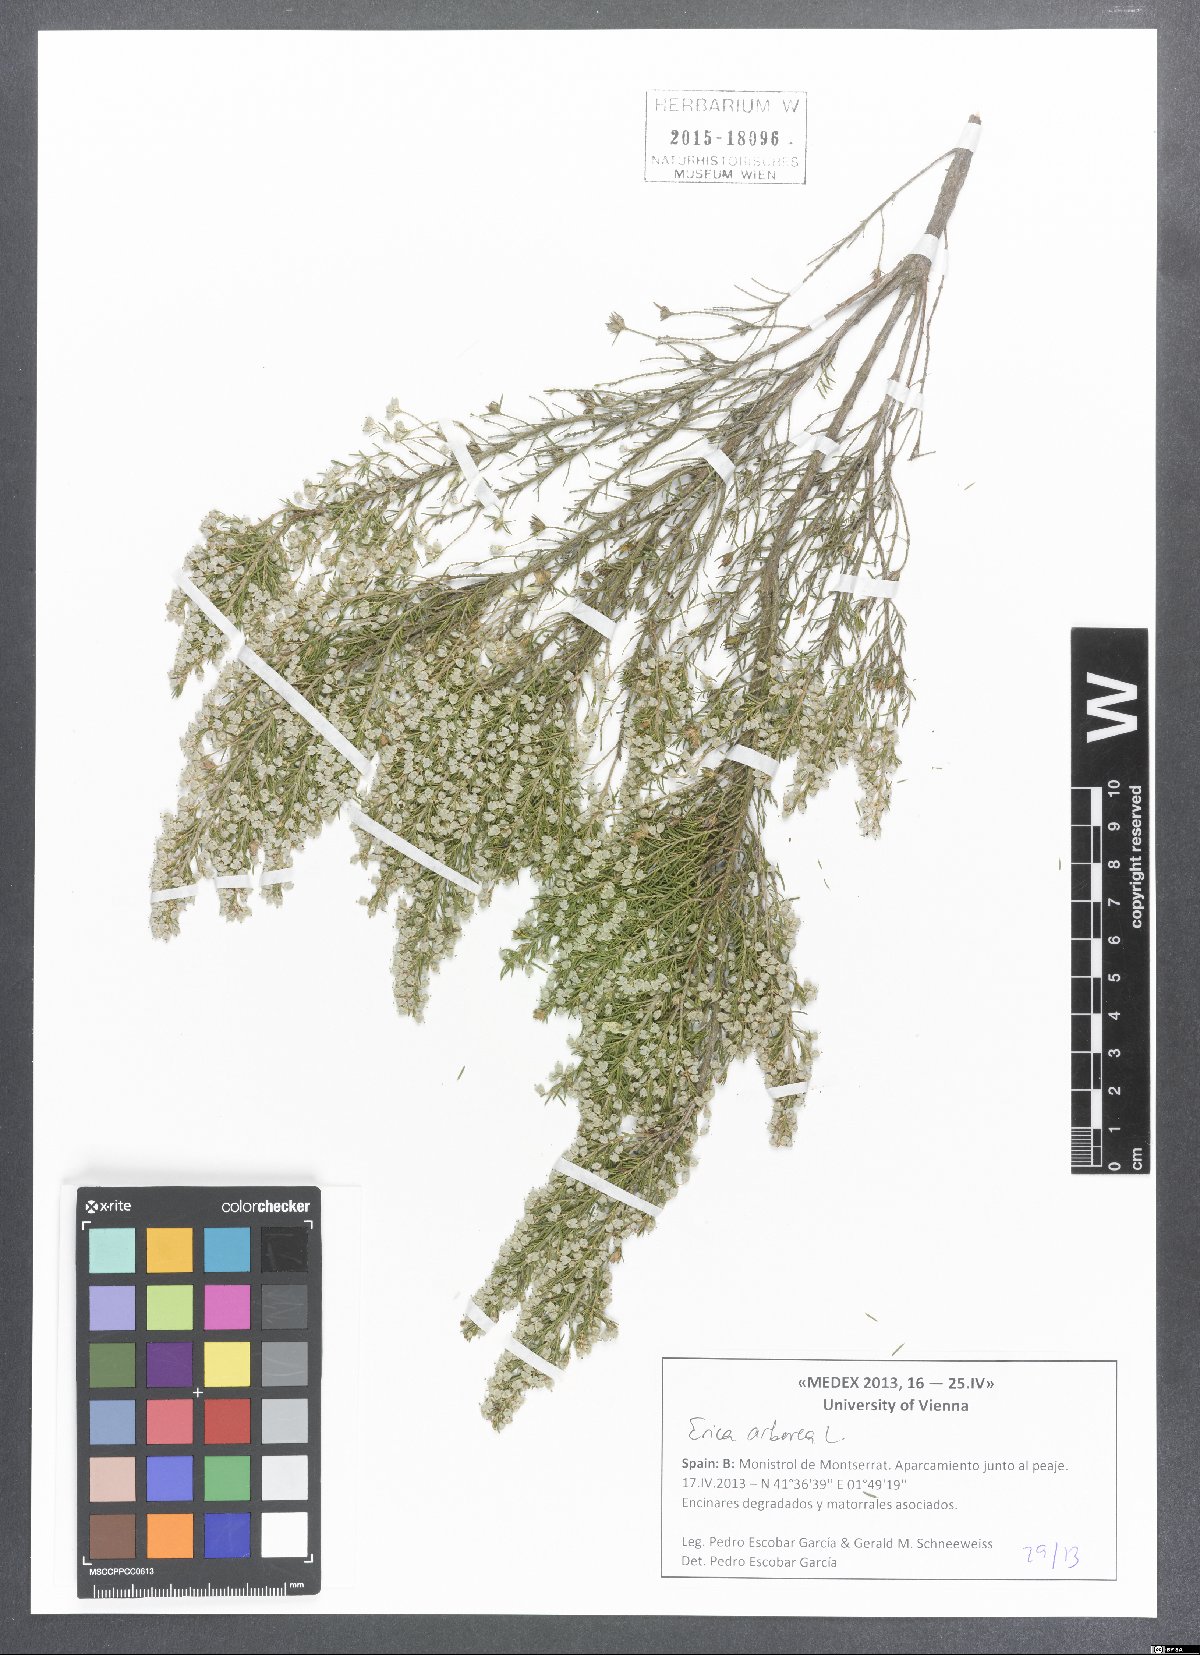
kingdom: Plantae
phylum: Tracheophyta
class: Magnoliopsida
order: Ericales
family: Ericaceae
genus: Erica
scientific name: Erica arborea
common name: Tree heath
